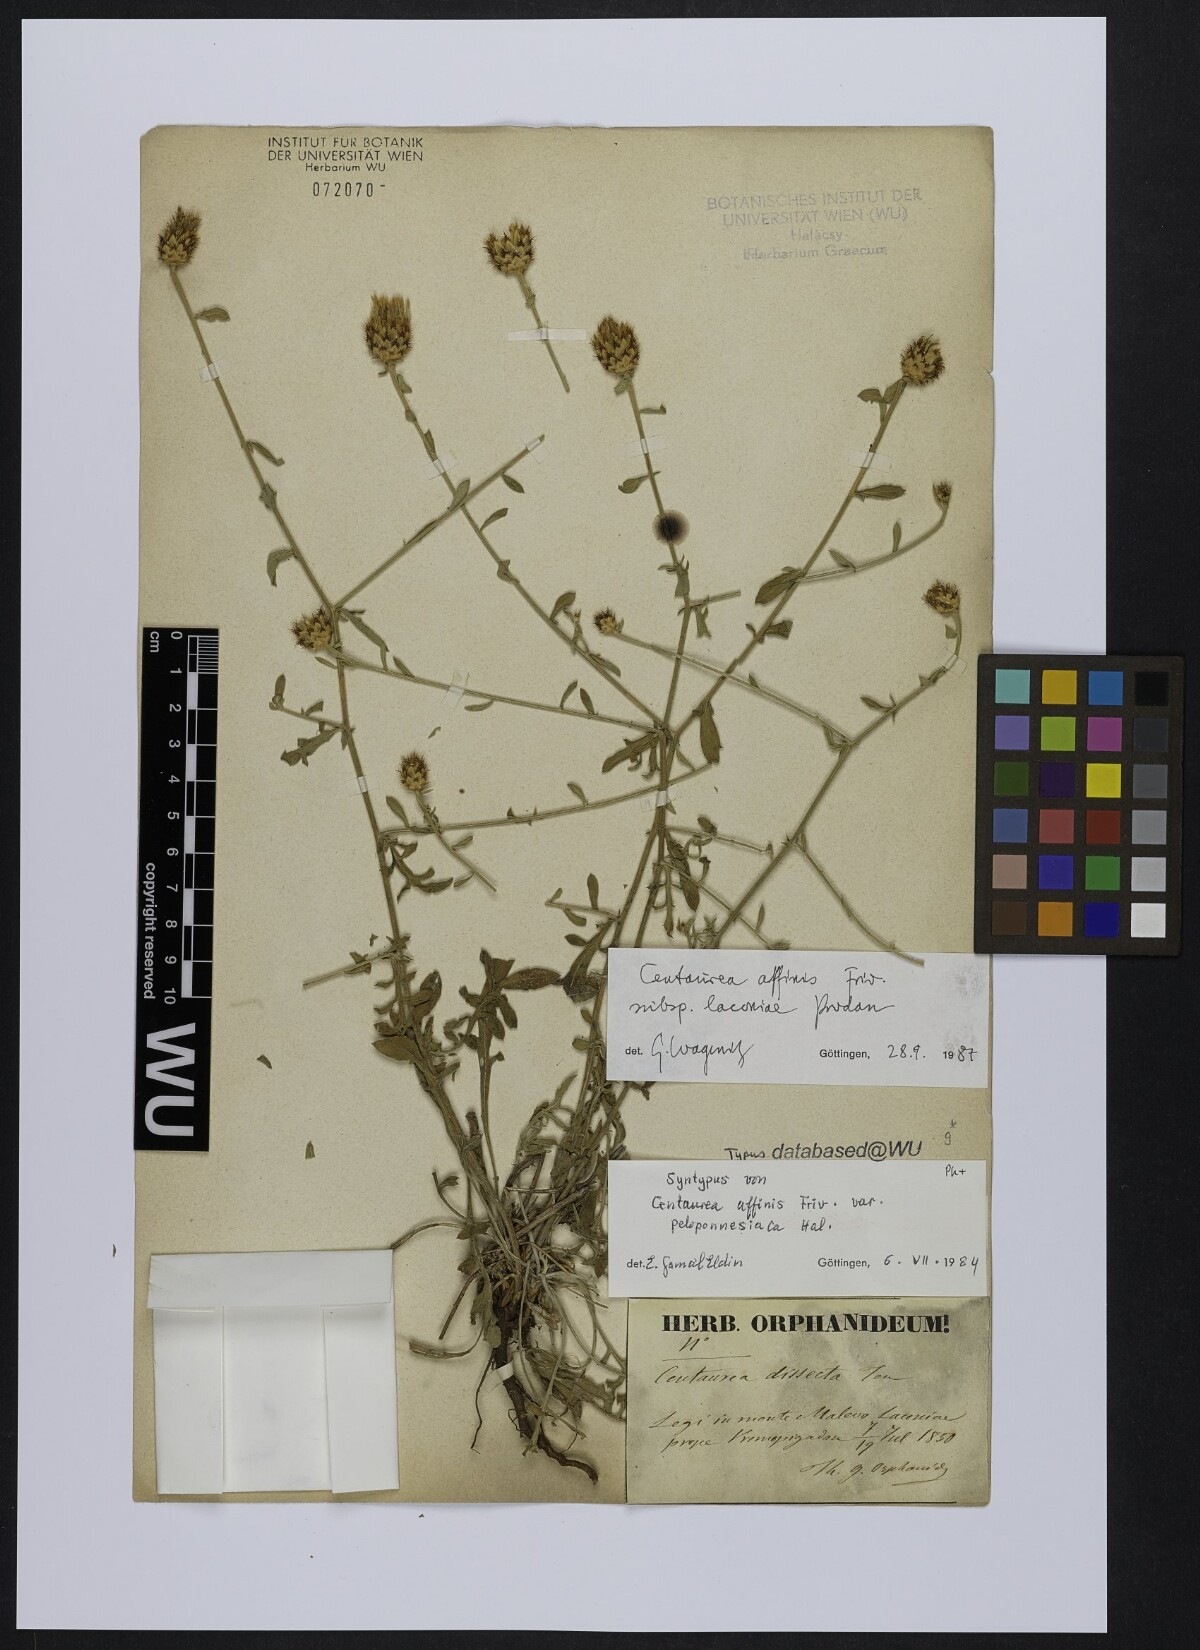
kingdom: Plantae
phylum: Tracheophyta
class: Magnoliopsida
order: Asterales
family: Asteraceae
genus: Centaurea
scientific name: Centaurea affinis
